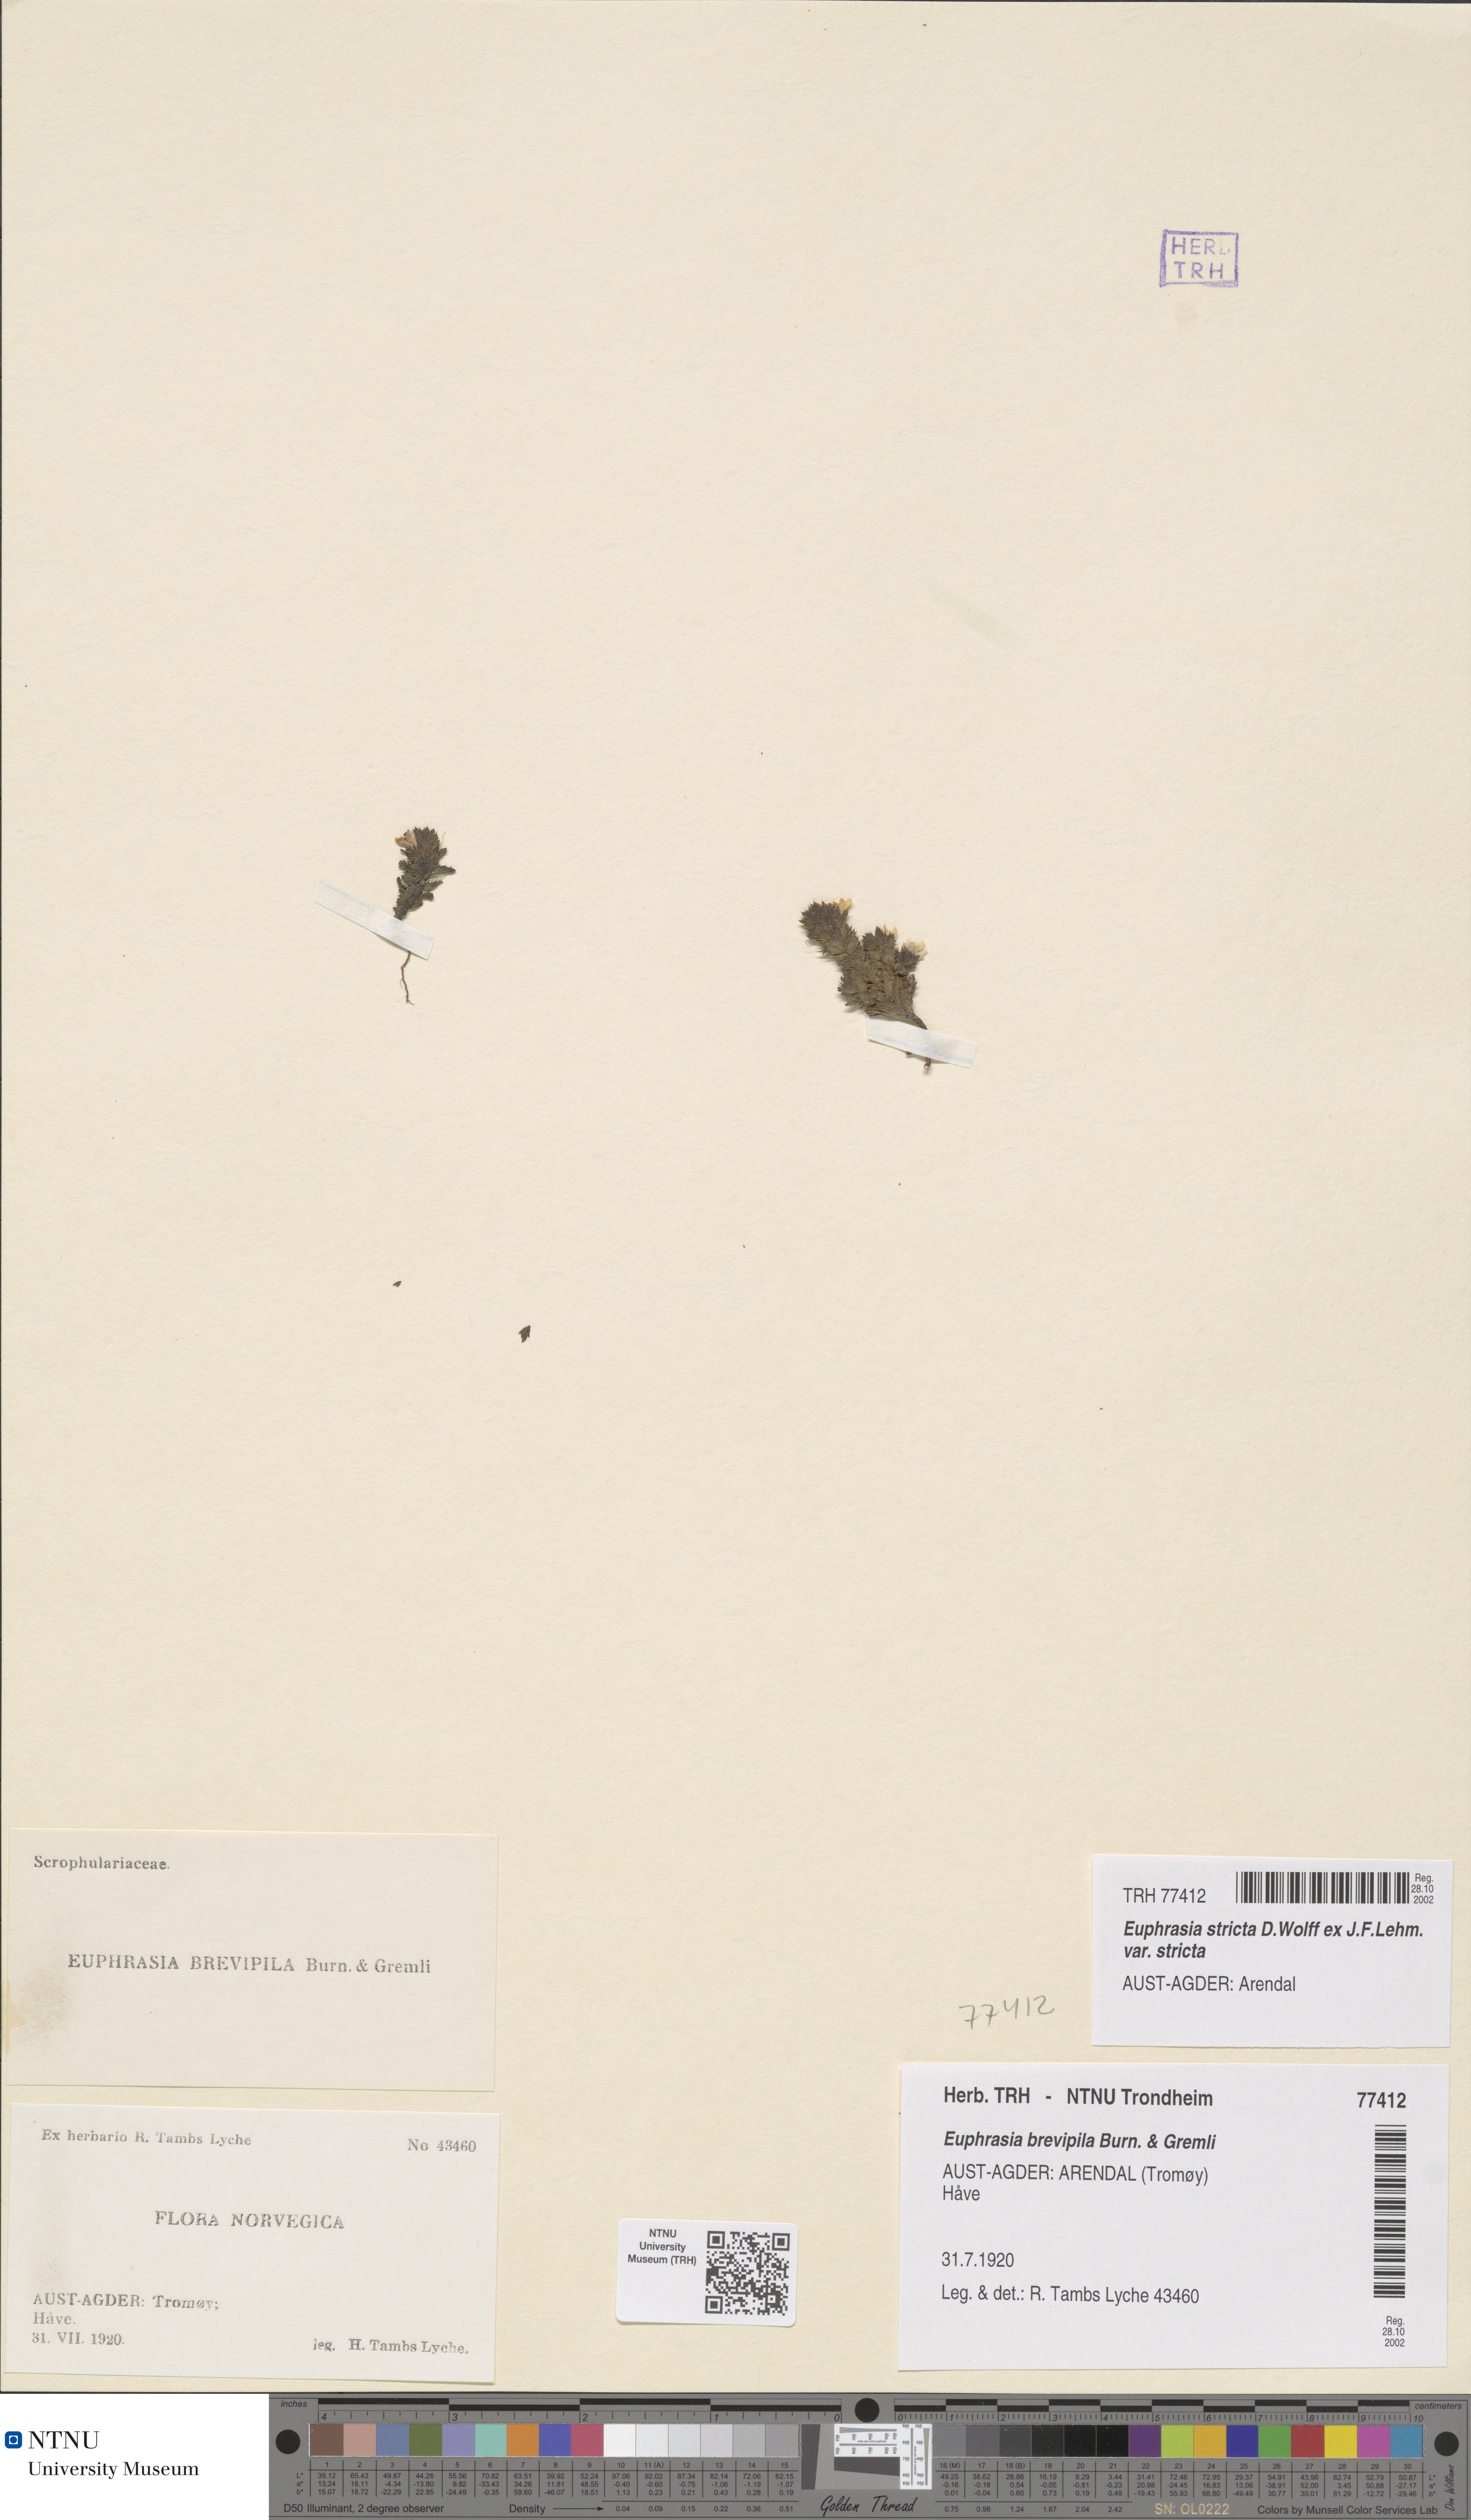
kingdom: Plantae
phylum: Tracheophyta
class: Magnoliopsida
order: Lamiales
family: Orobanchaceae
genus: Euphrasia
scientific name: Euphrasia vernalis
